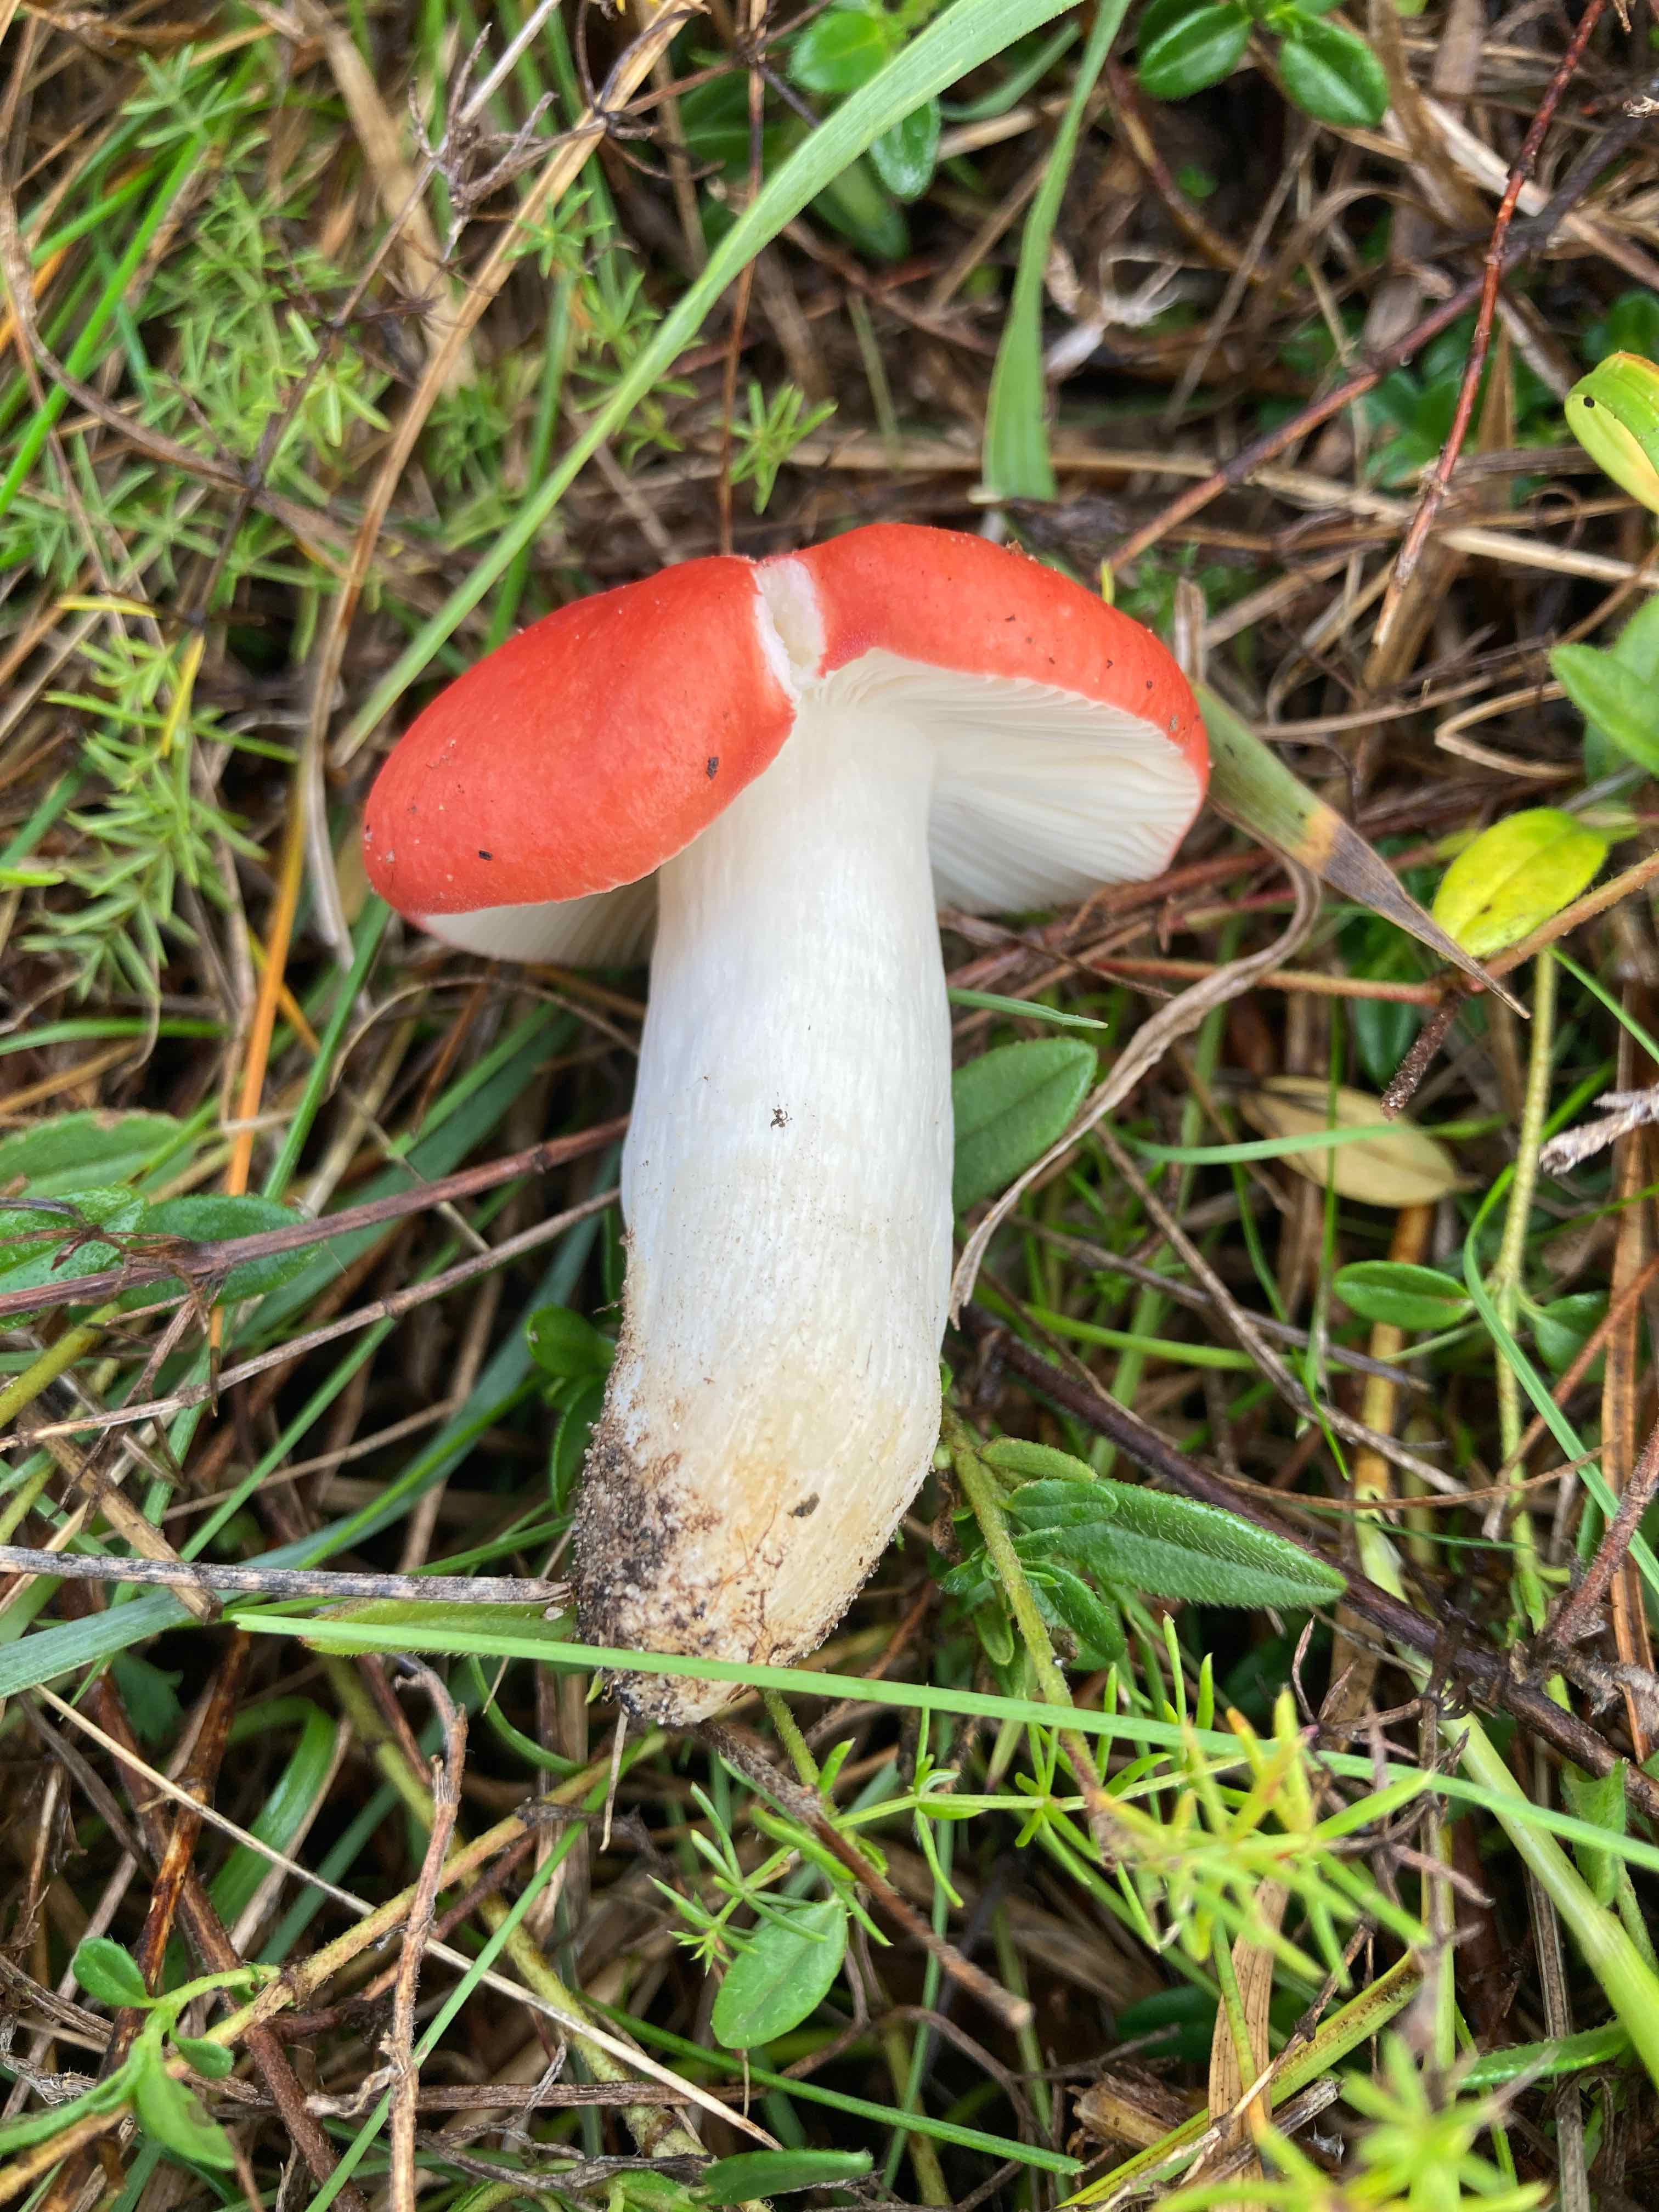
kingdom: Fungi
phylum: Basidiomycota
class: Agaricomycetes
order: Russulales
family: Russulaceae
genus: Russula
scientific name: Russula
